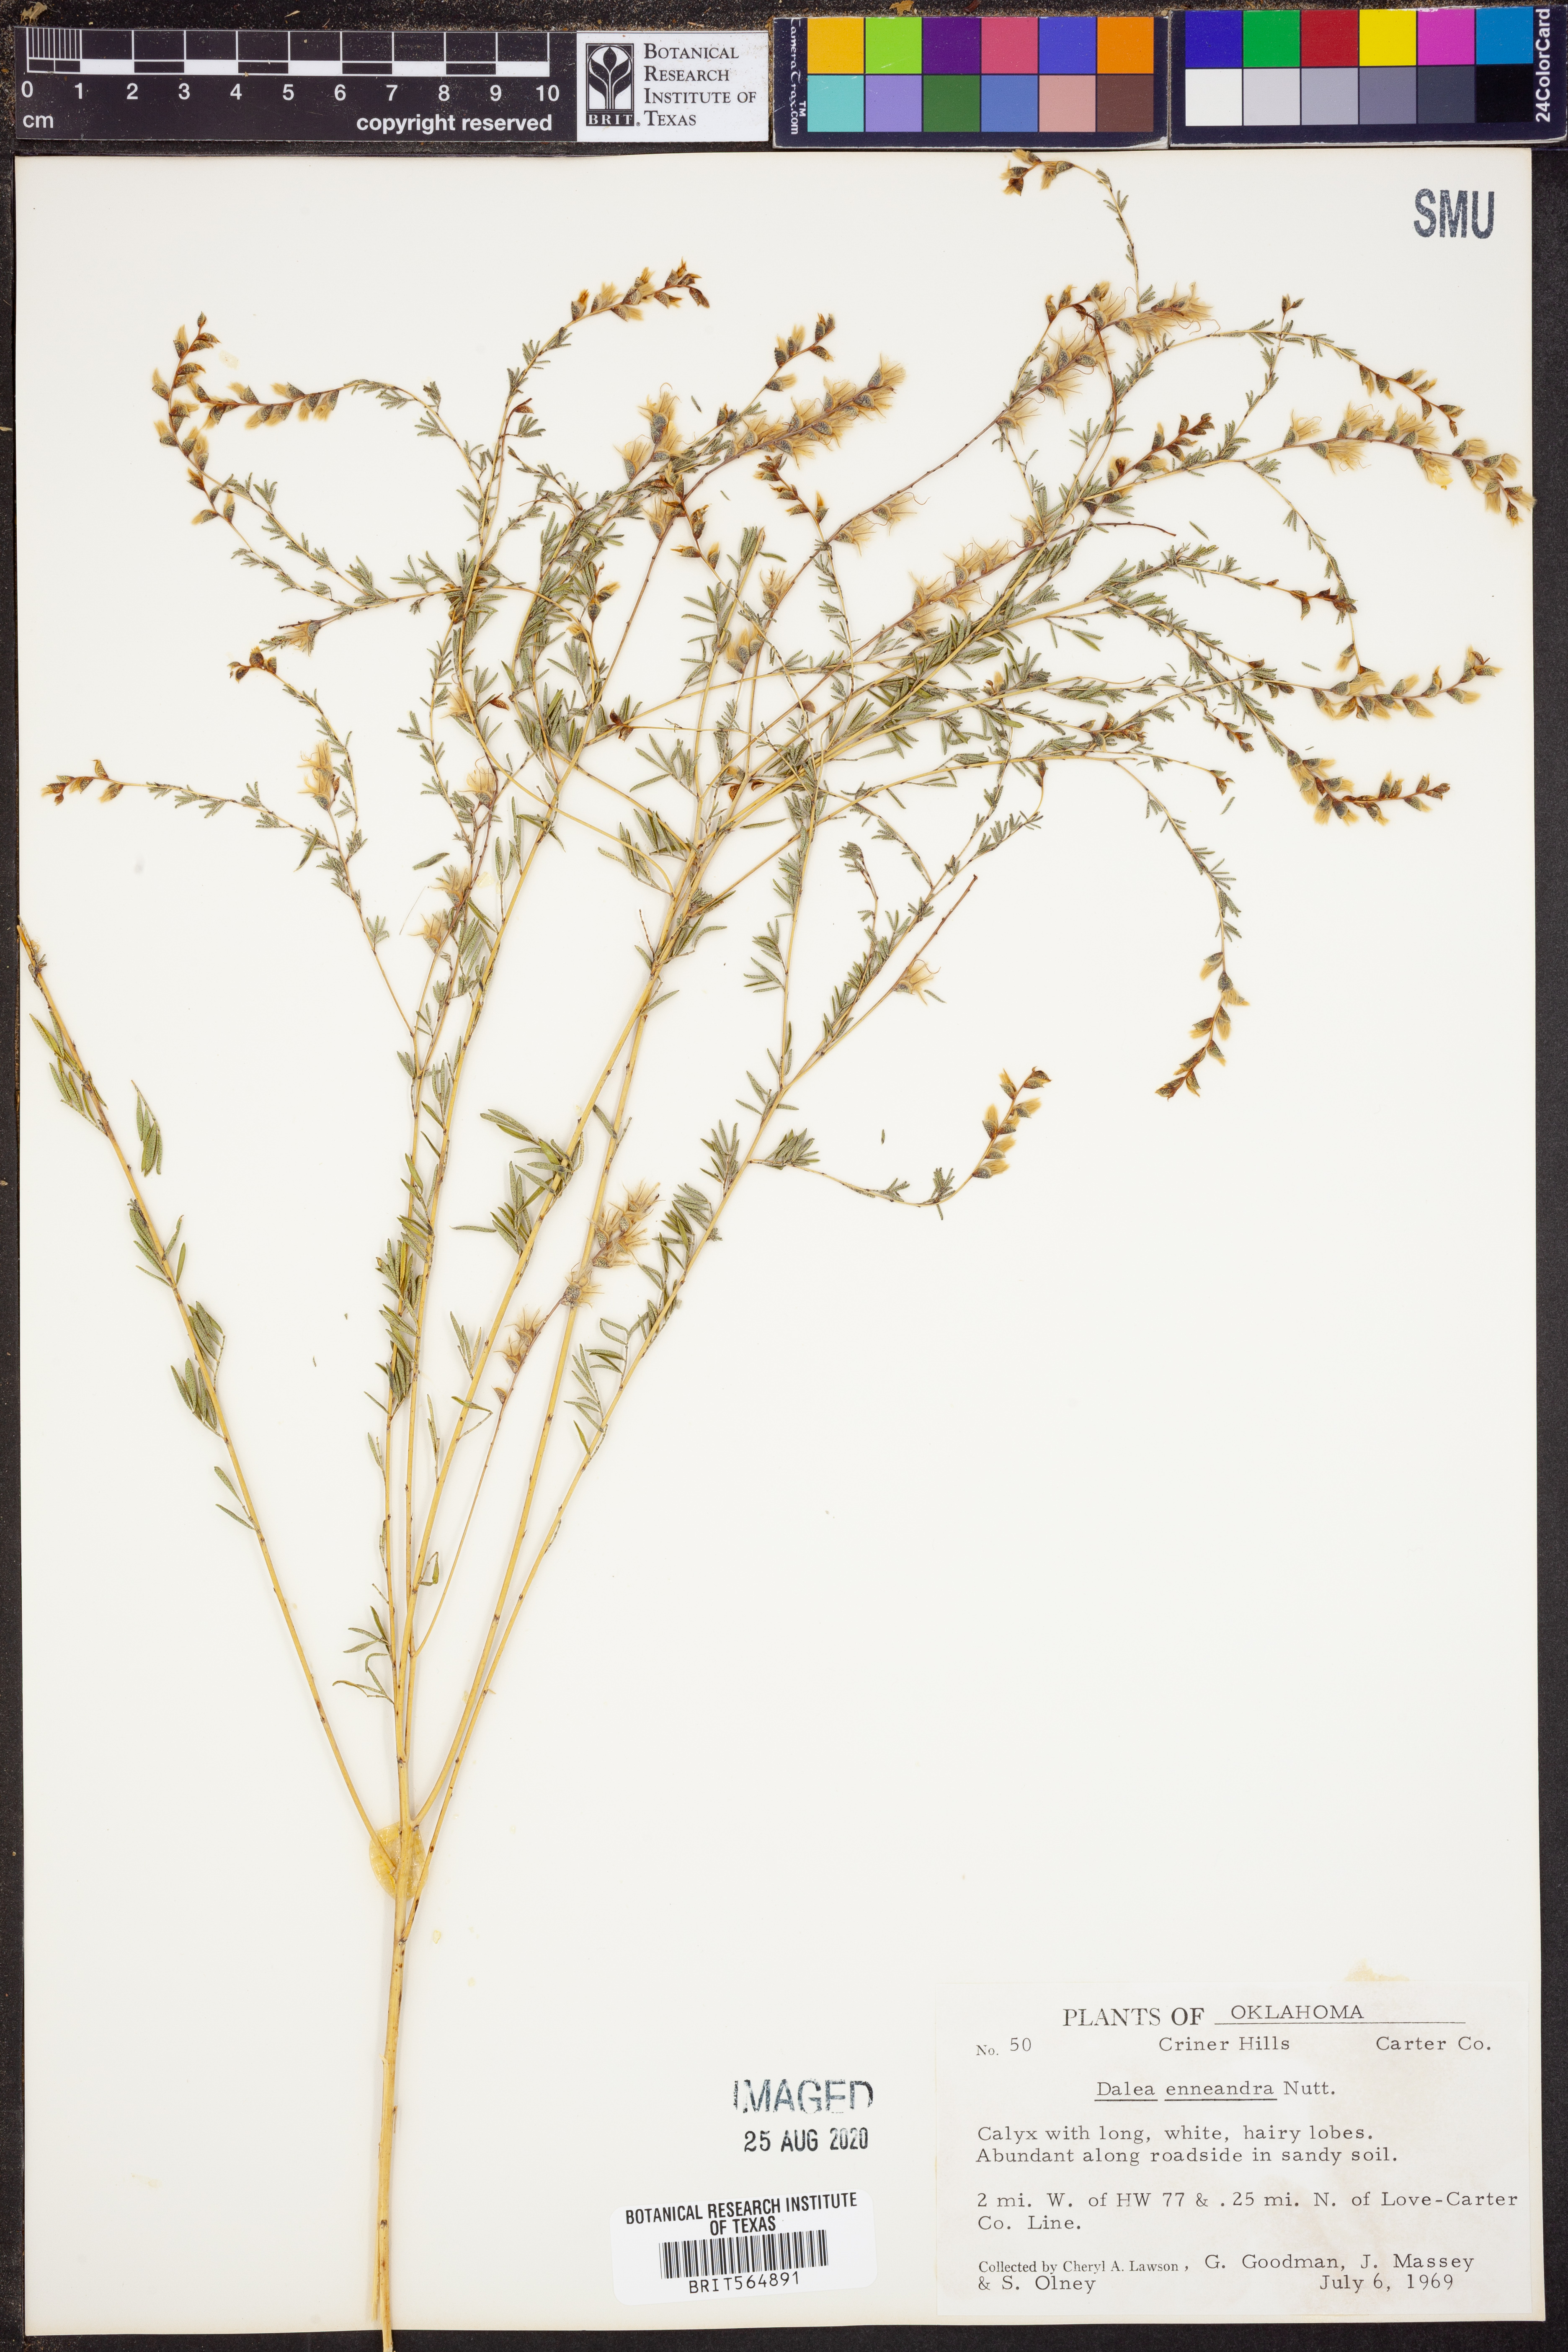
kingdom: Plantae
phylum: Tracheophyta
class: Magnoliopsida
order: Fabales
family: Fabaceae
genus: Dalea
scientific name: Dalea enneandra
